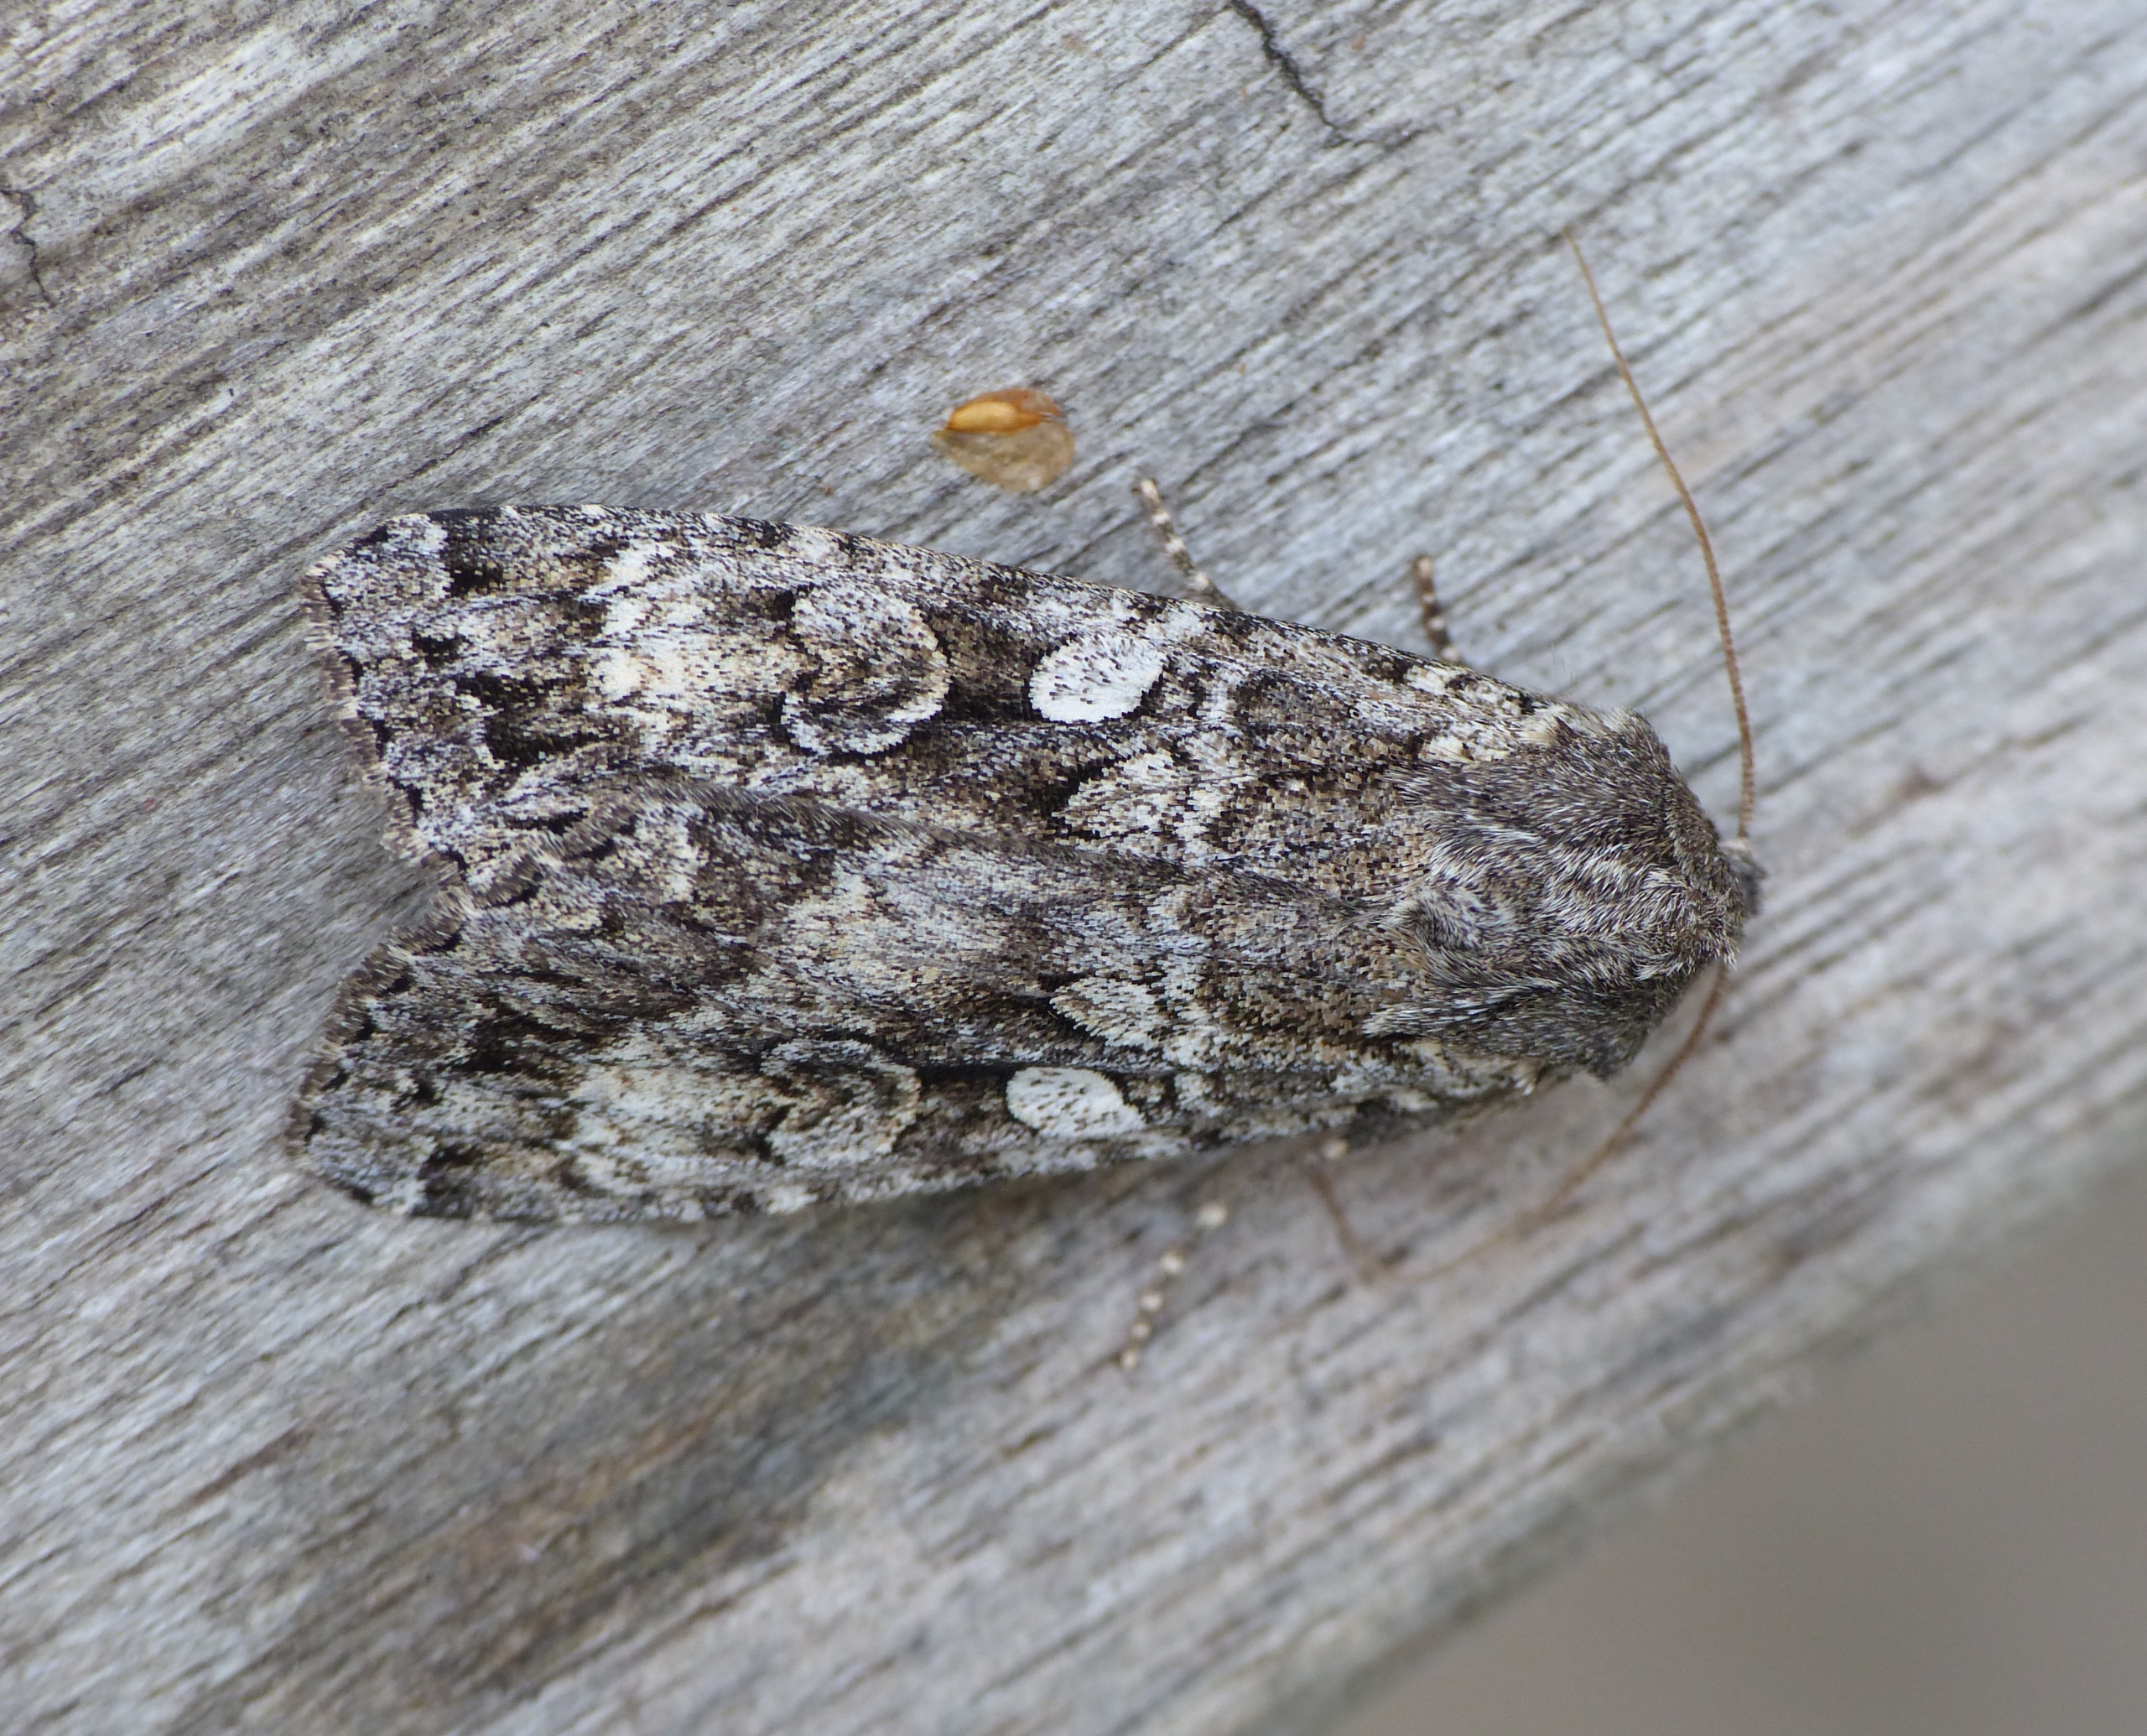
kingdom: Animalia
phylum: Arthropoda
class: Insecta
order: Lepidoptera
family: Noctuidae
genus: Eurois
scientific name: Eurois occulta
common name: Blågrå jordugle
